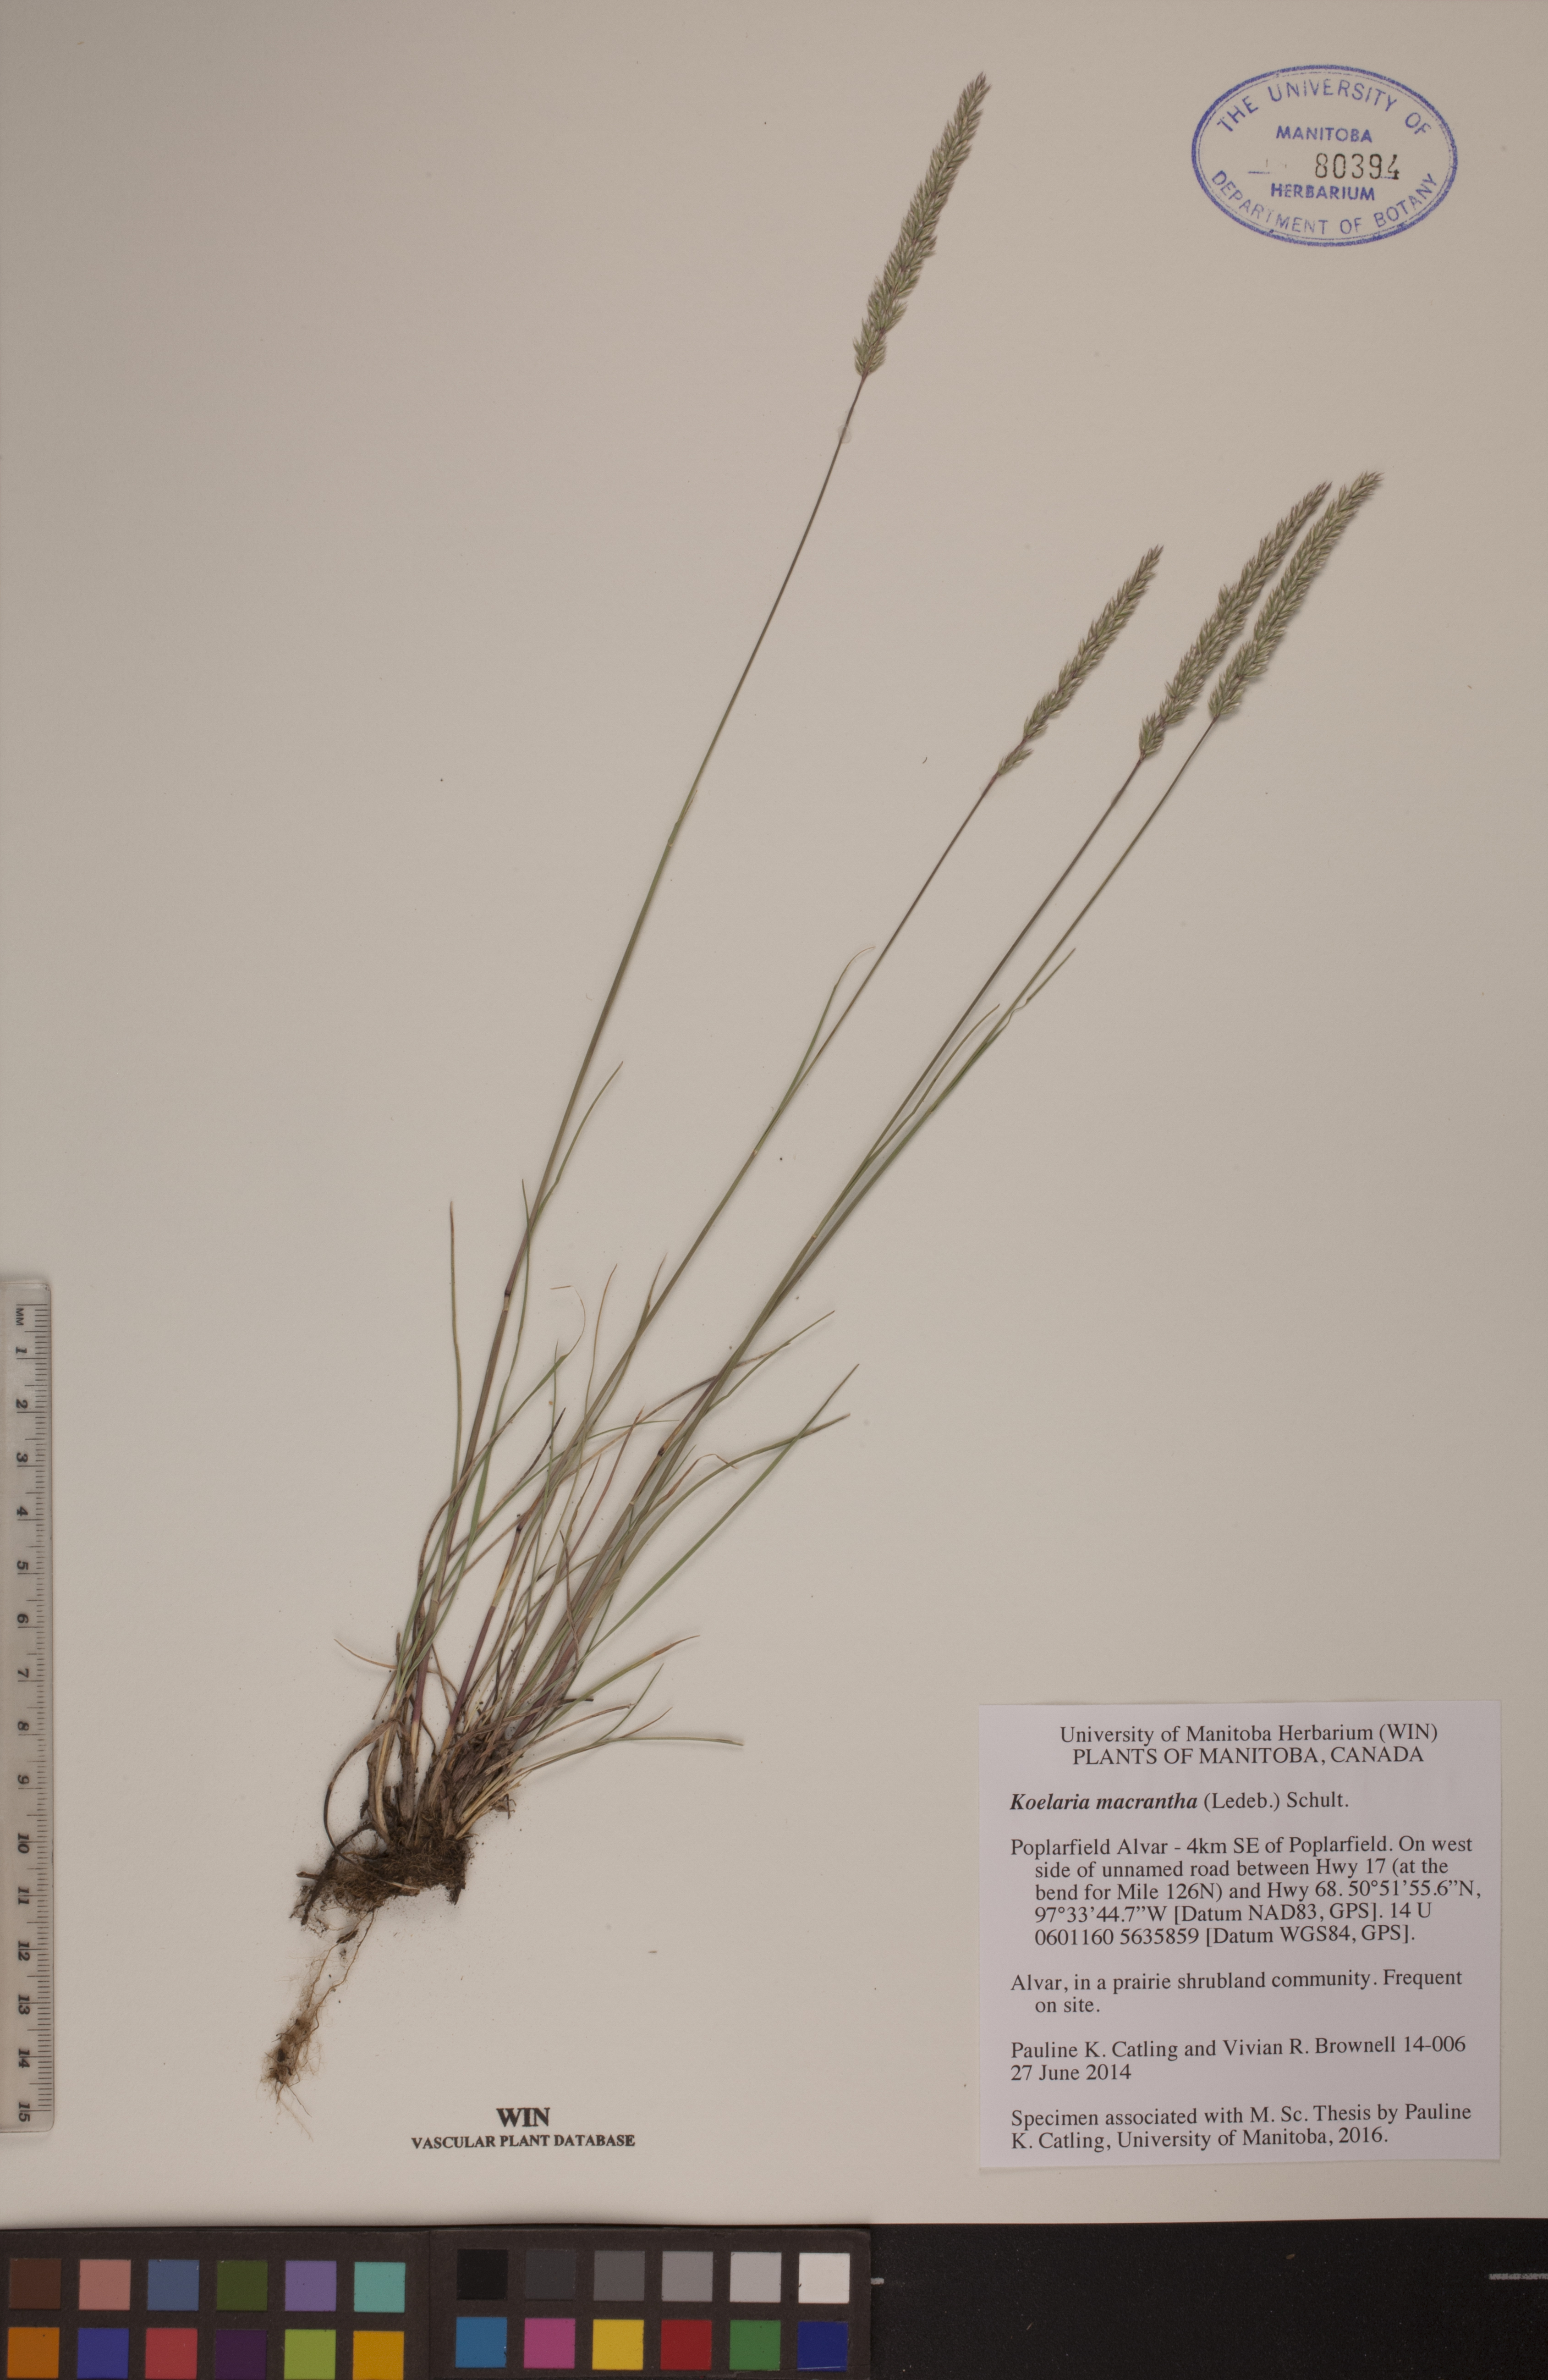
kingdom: Plantae
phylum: Tracheophyta
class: Liliopsida
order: Poales
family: Poaceae
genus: Koeleria
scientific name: Koeleria macrantha
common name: Crested hair-grass
